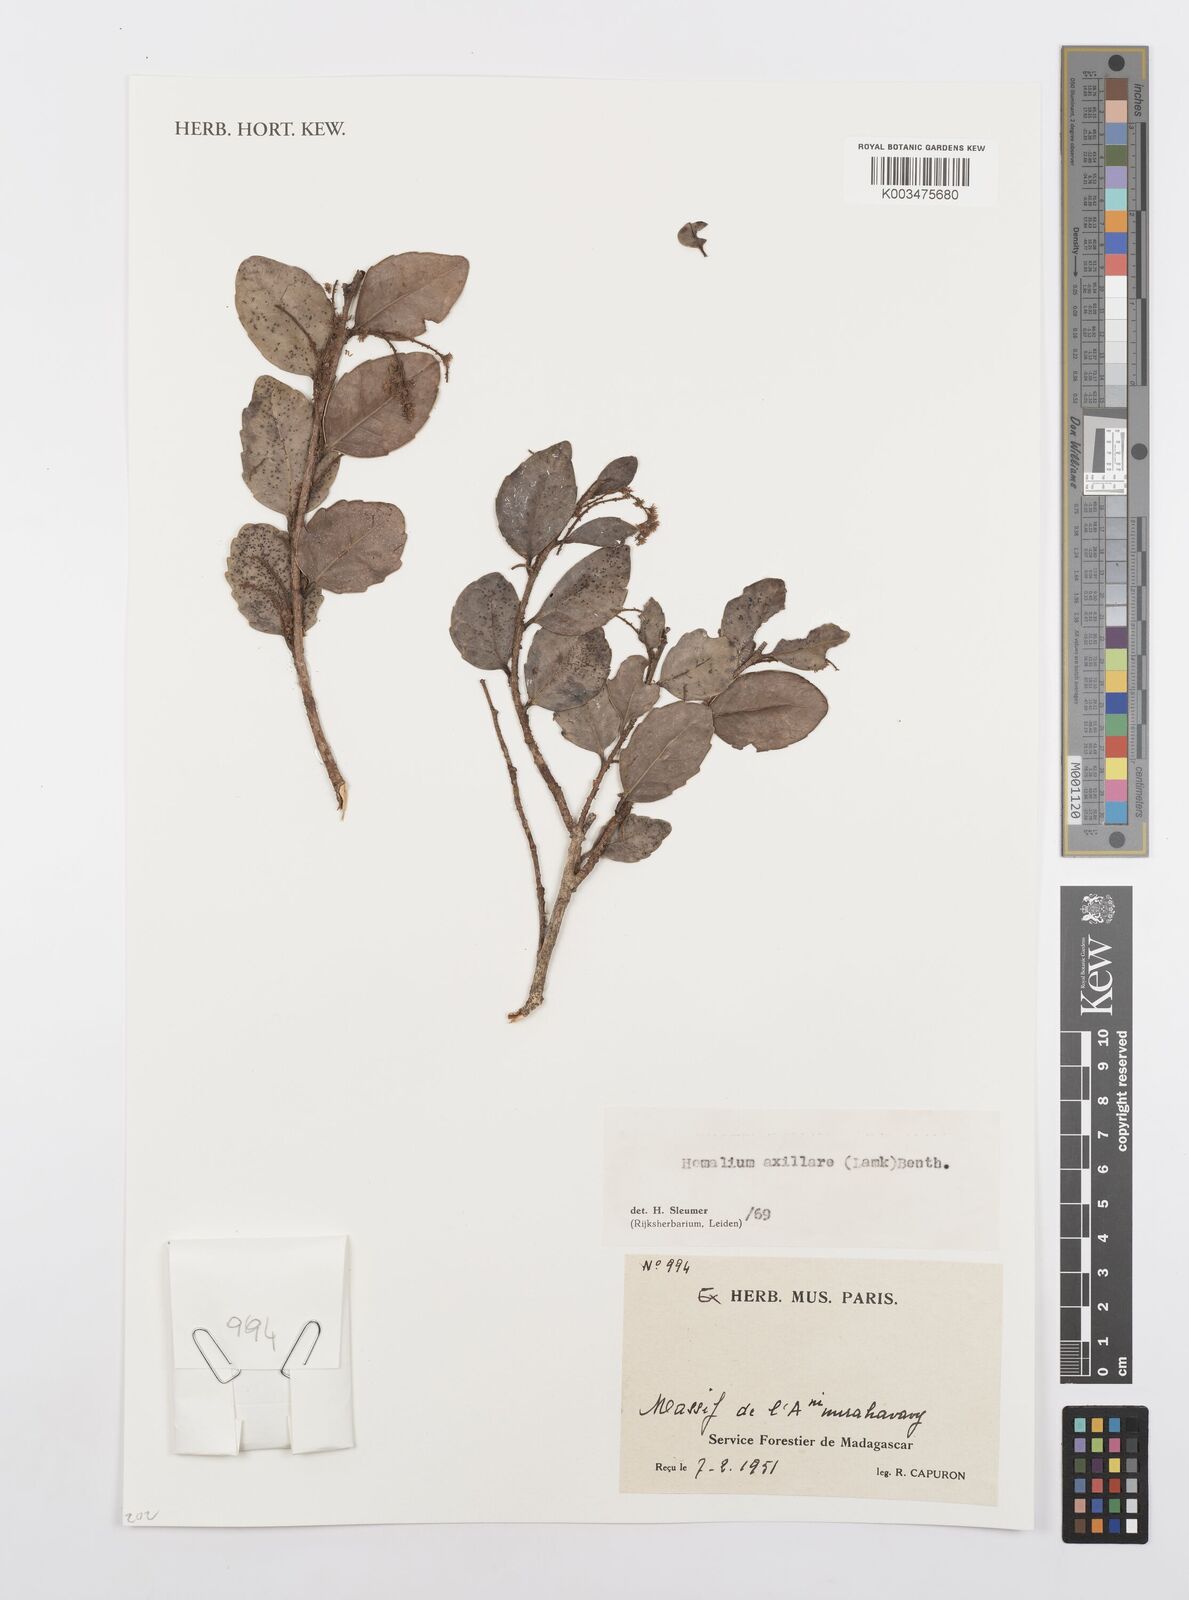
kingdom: Plantae
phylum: Tracheophyta
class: Magnoliopsida
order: Malpighiales
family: Salicaceae
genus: Homalium
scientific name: Homalium axillare
